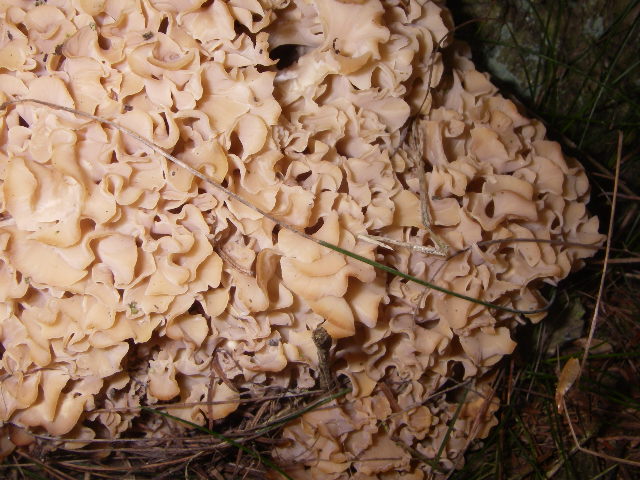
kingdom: Fungi
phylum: Basidiomycota
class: Agaricomycetes
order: Polyporales
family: Sparassidaceae
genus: Sparassis
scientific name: Sparassis crispa
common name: kruset blomkålssvamp
